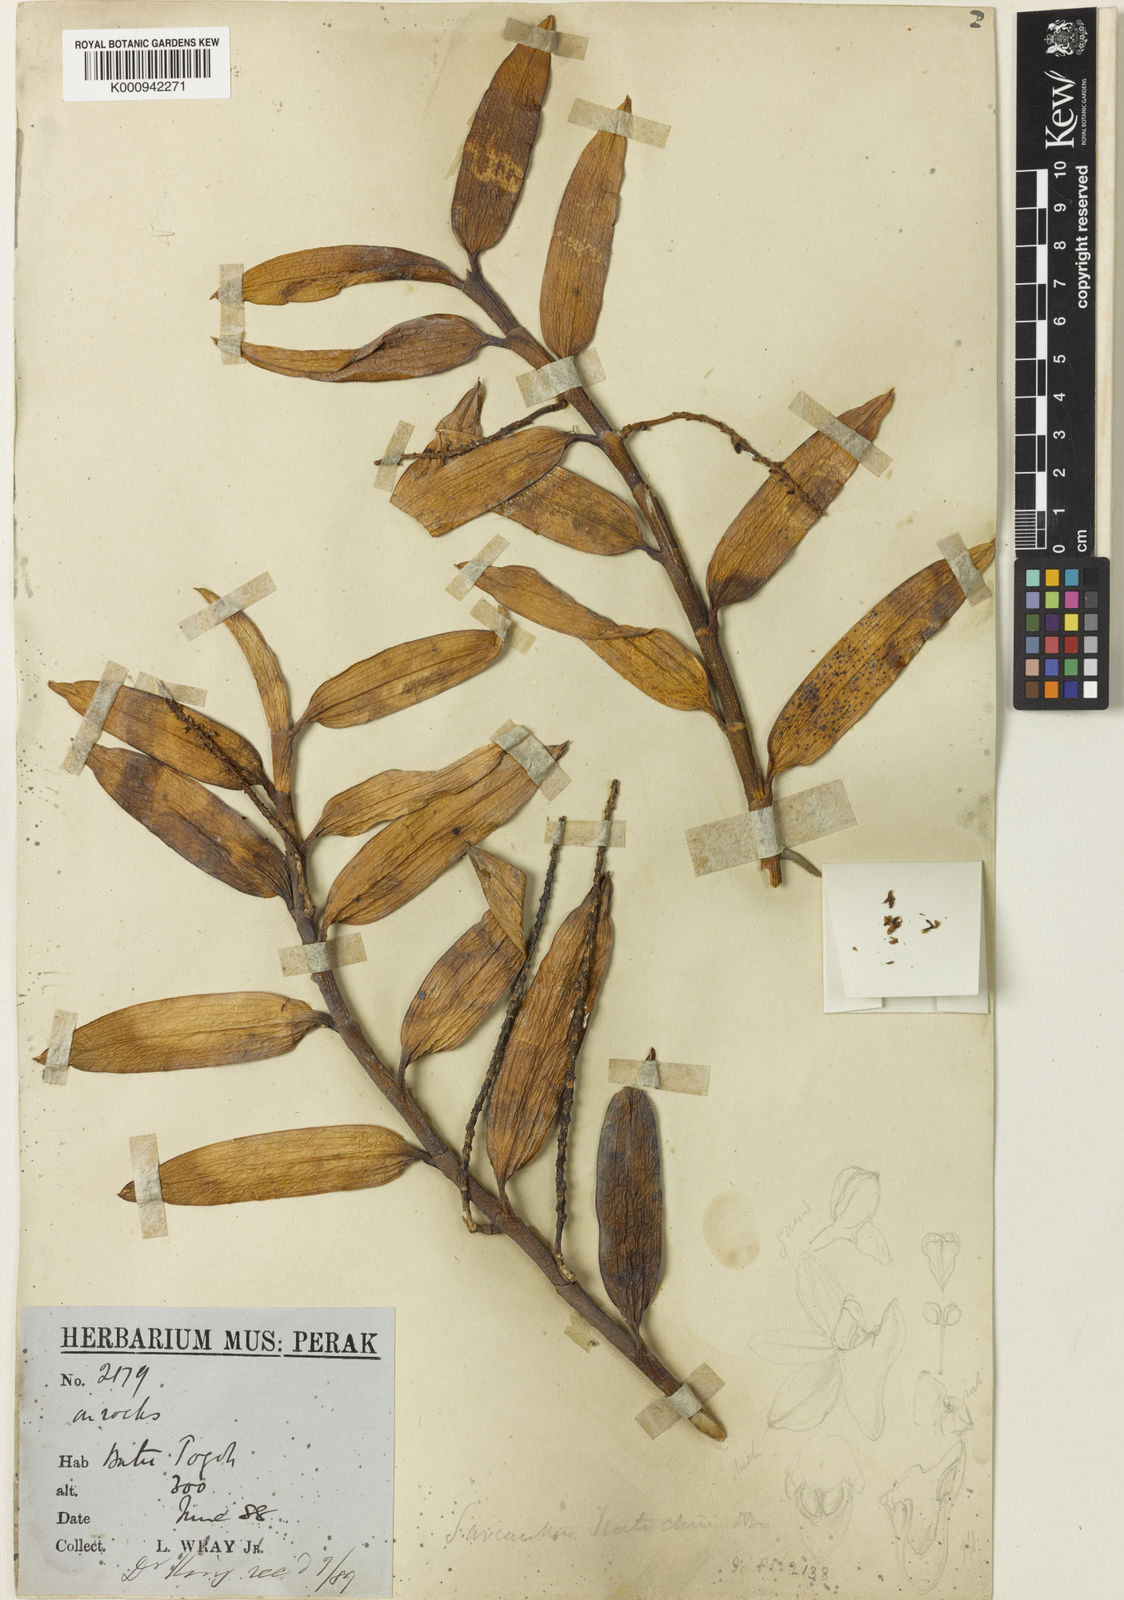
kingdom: Plantae
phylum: Tracheophyta
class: Liliopsida
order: Asparagales
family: Orchidaceae
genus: Cleisostoma
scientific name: Cleisostoma scortechinii
